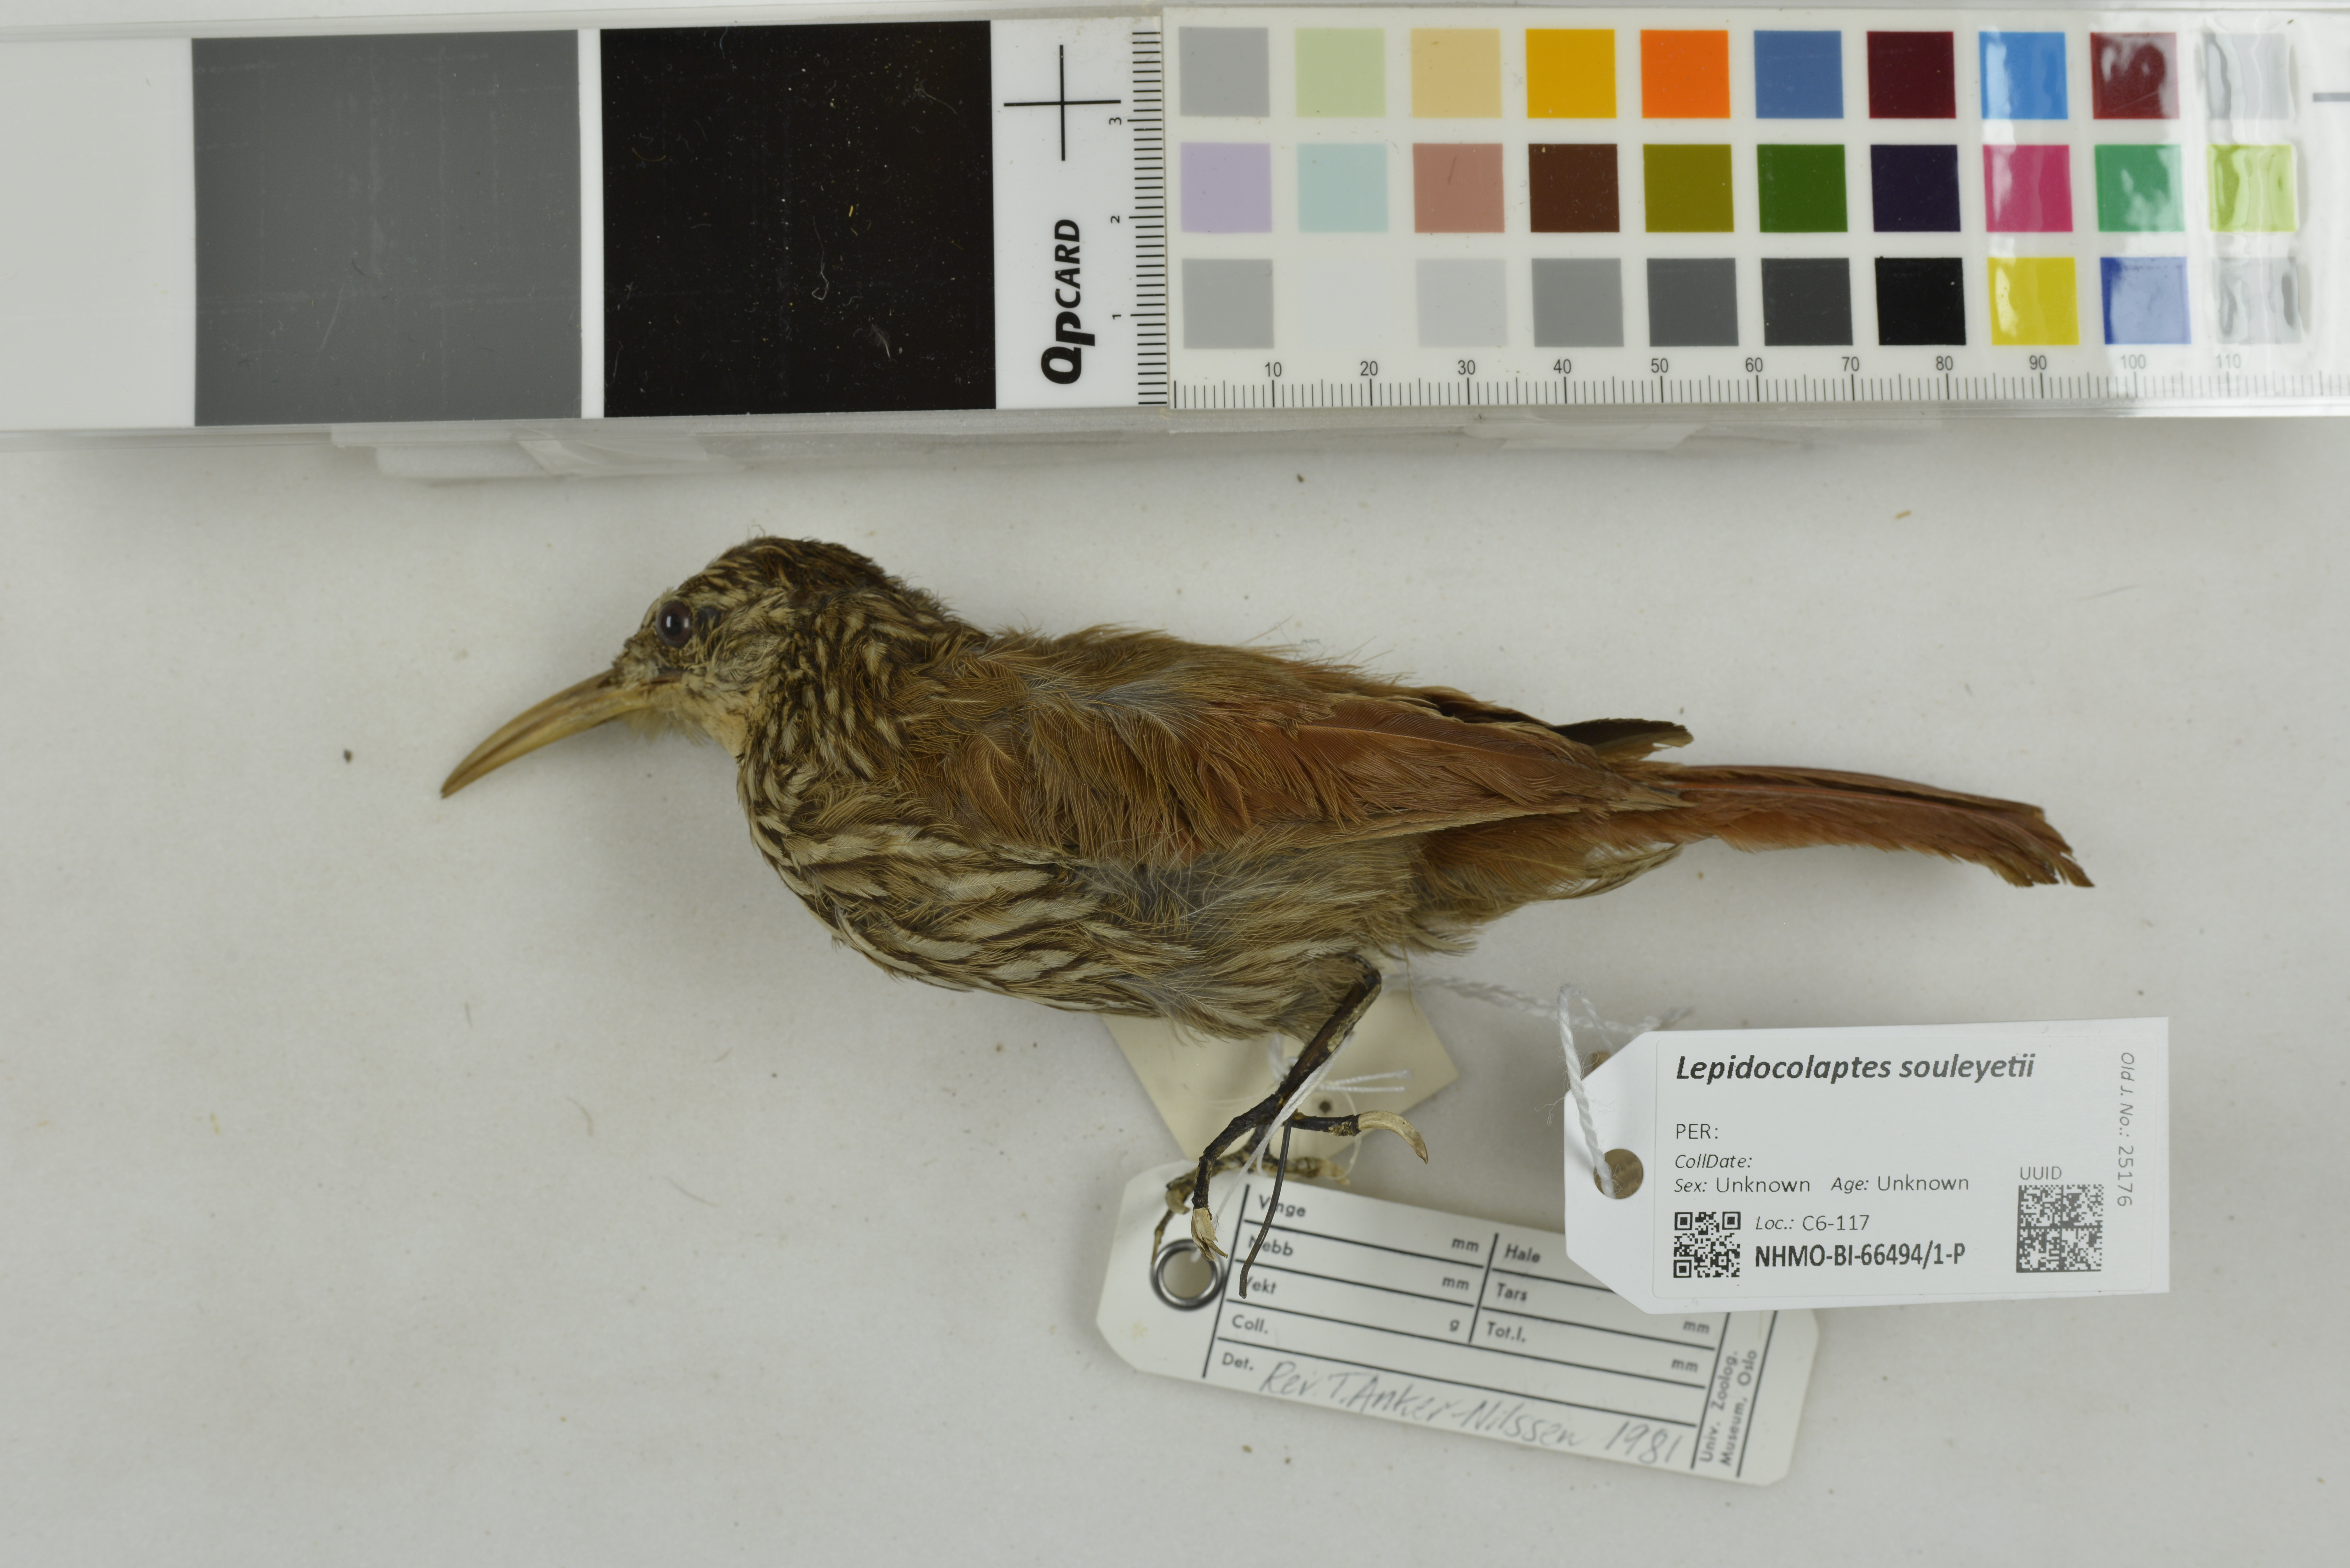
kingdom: Animalia
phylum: Chordata
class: Aves
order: Passeriformes
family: Furnariidae
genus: Lepidocolaptes
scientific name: Lepidocolaptes souleyetii
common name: Streak-headed woodcreeper
